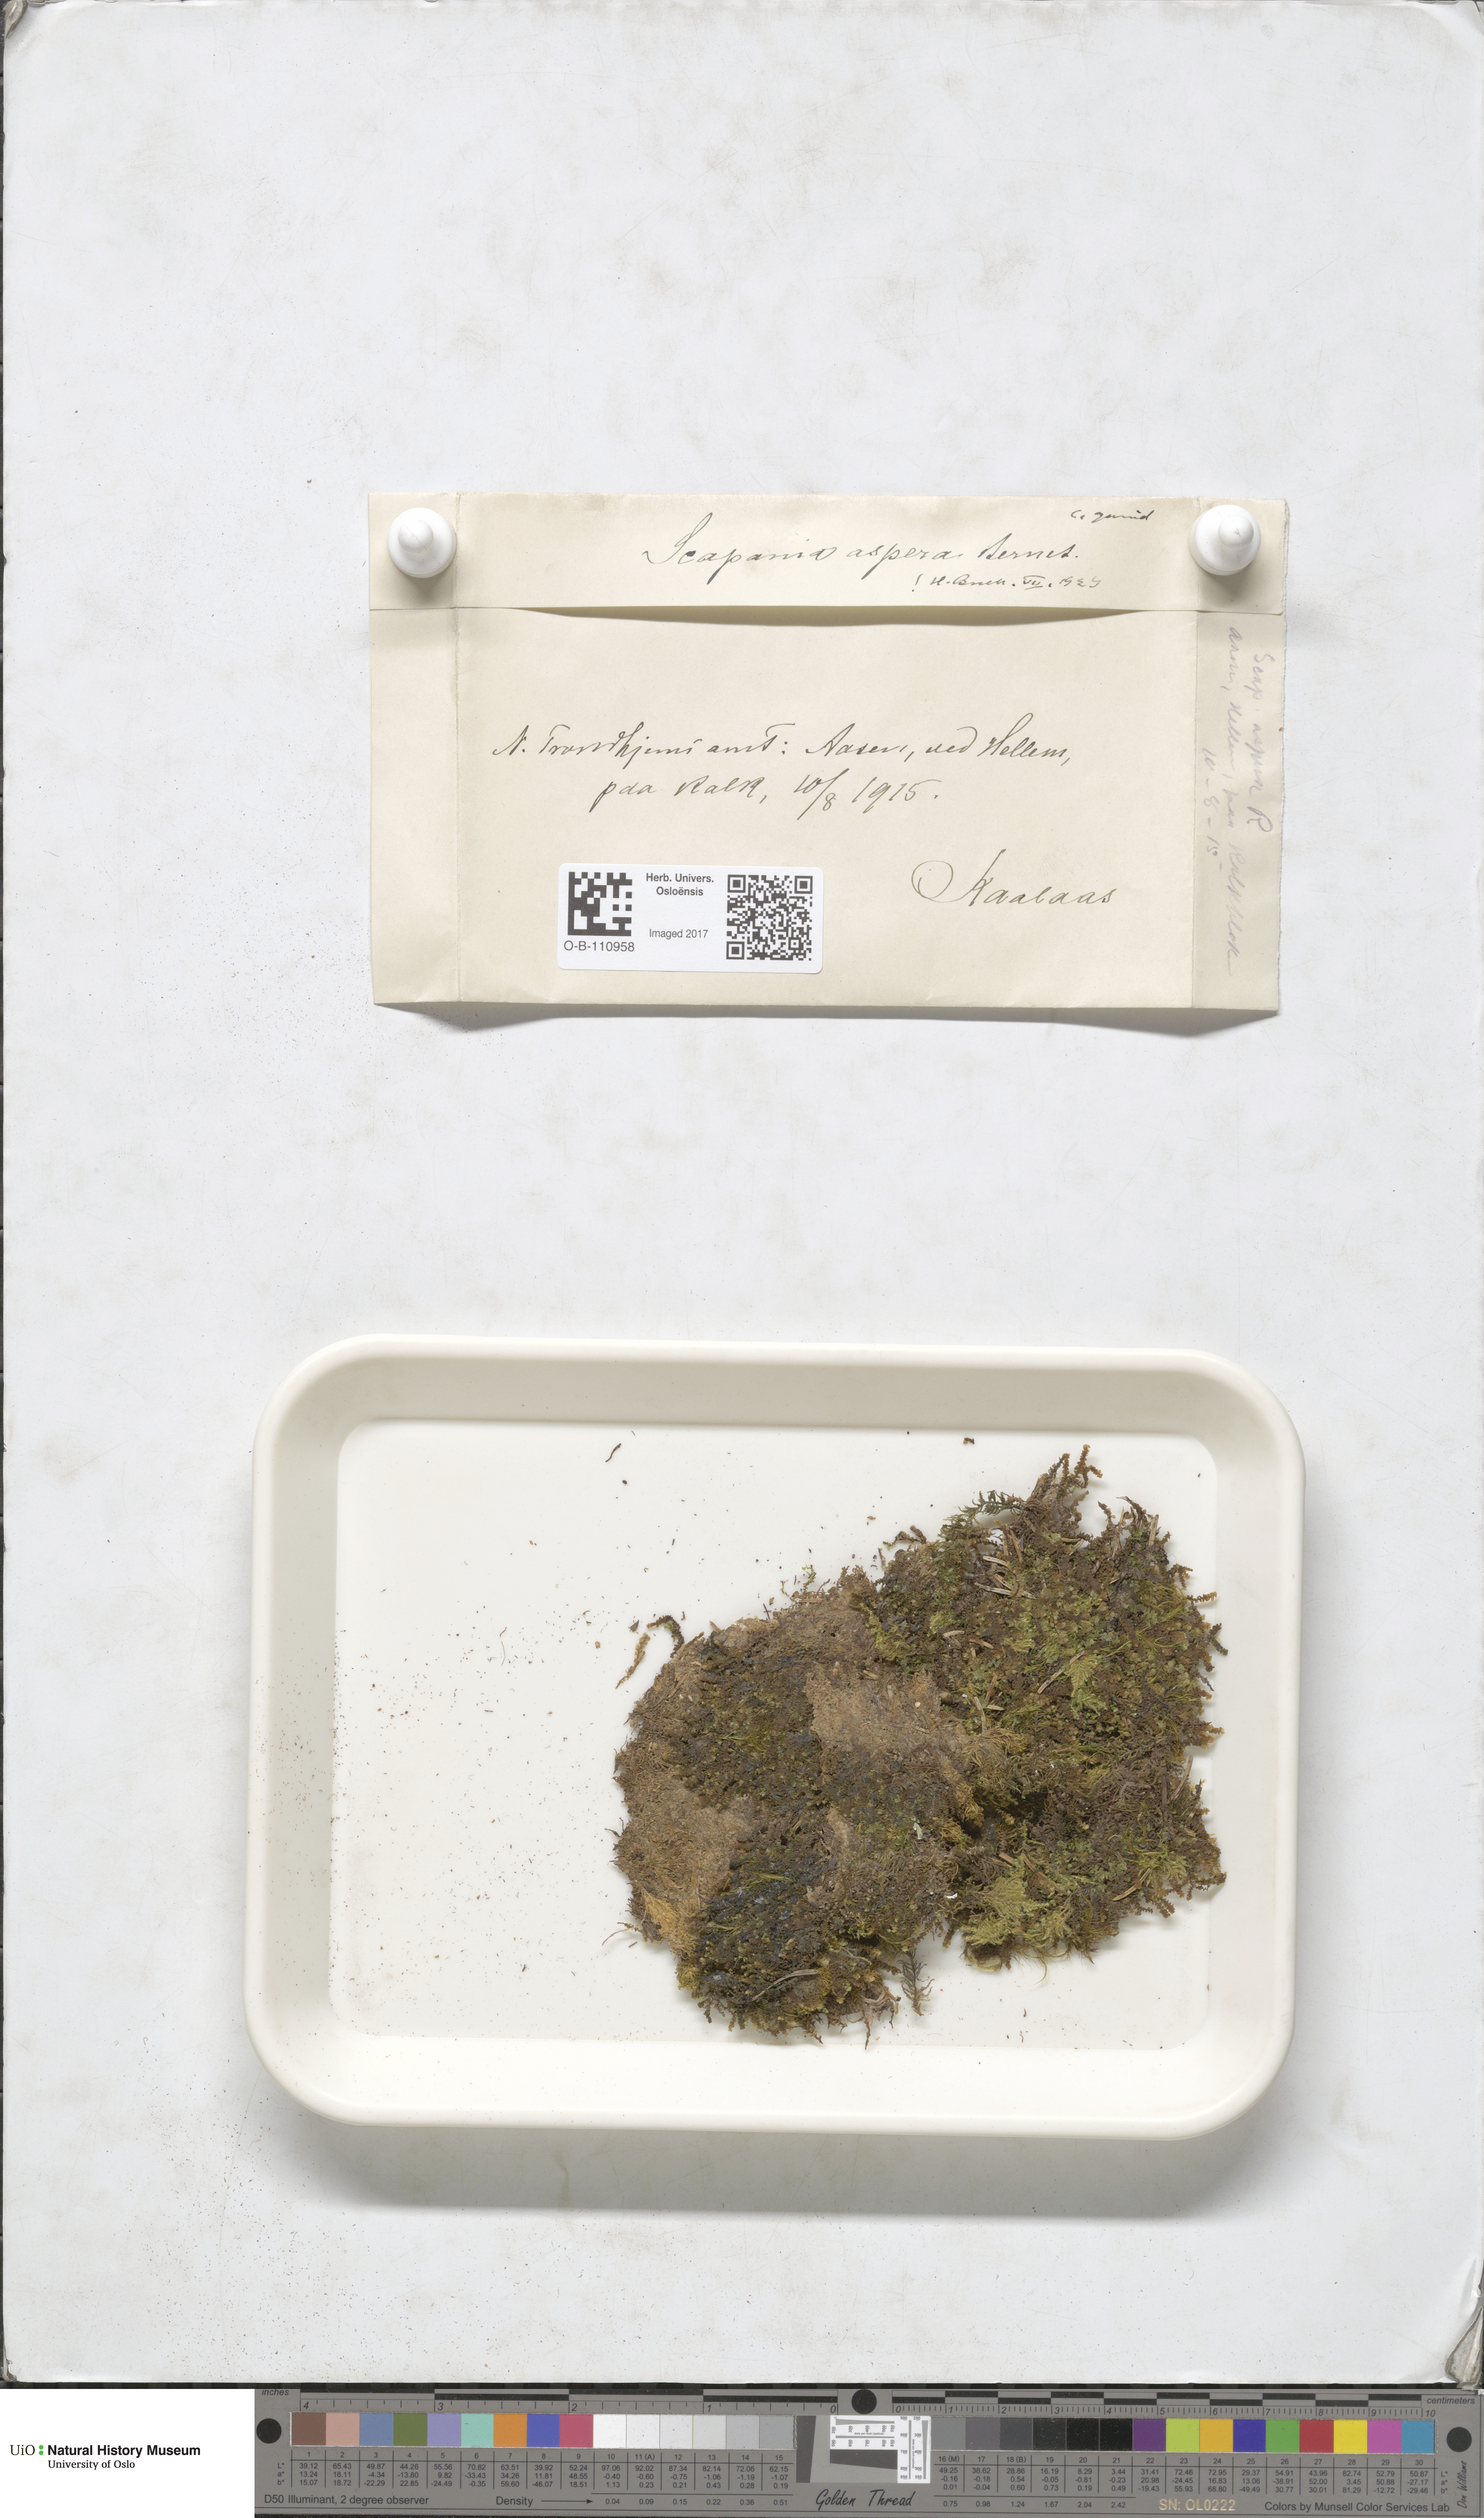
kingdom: Plantae
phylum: Marchantiophyta
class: Jungermanniopsida
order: Jungermanniales
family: Scapaniaceae
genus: Scapania
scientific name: Scapania aspera
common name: Rough earwort
